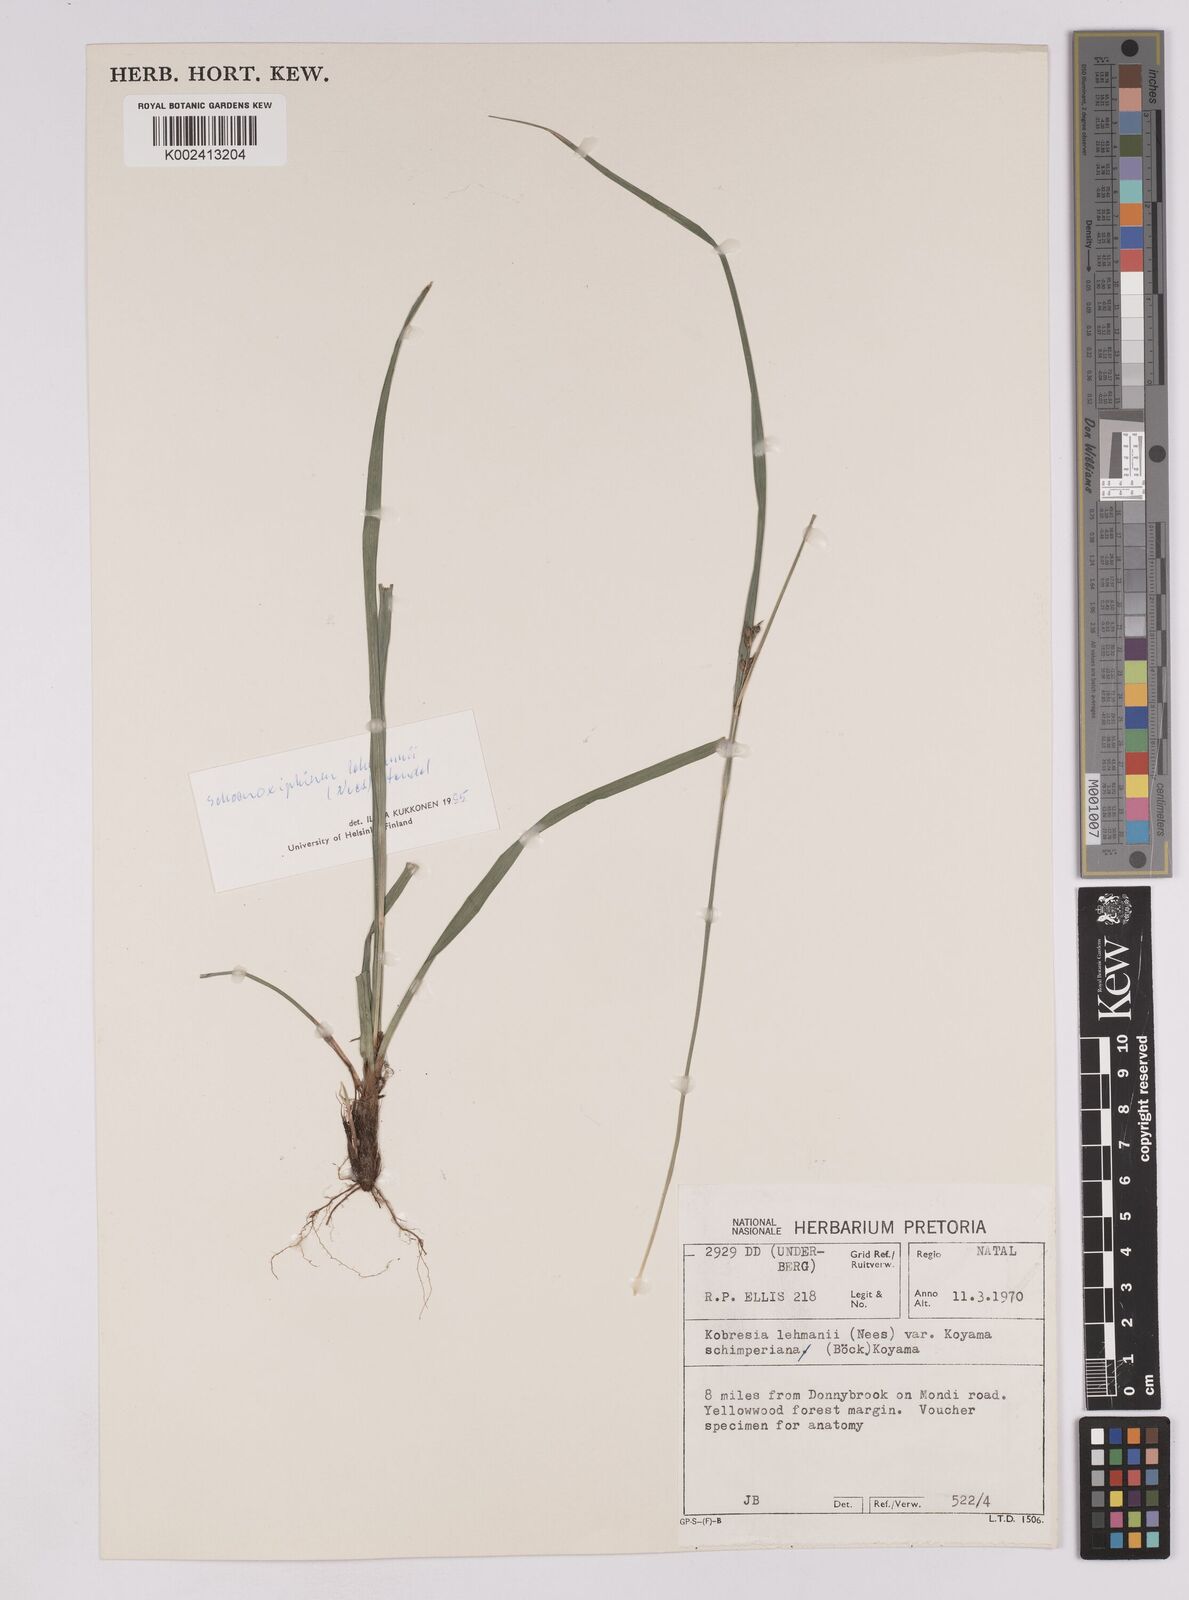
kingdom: Plantae
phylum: Tracheophyta
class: Liliopsida
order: Poales
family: Cyperaceae
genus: Carex
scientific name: Carex uhligii
